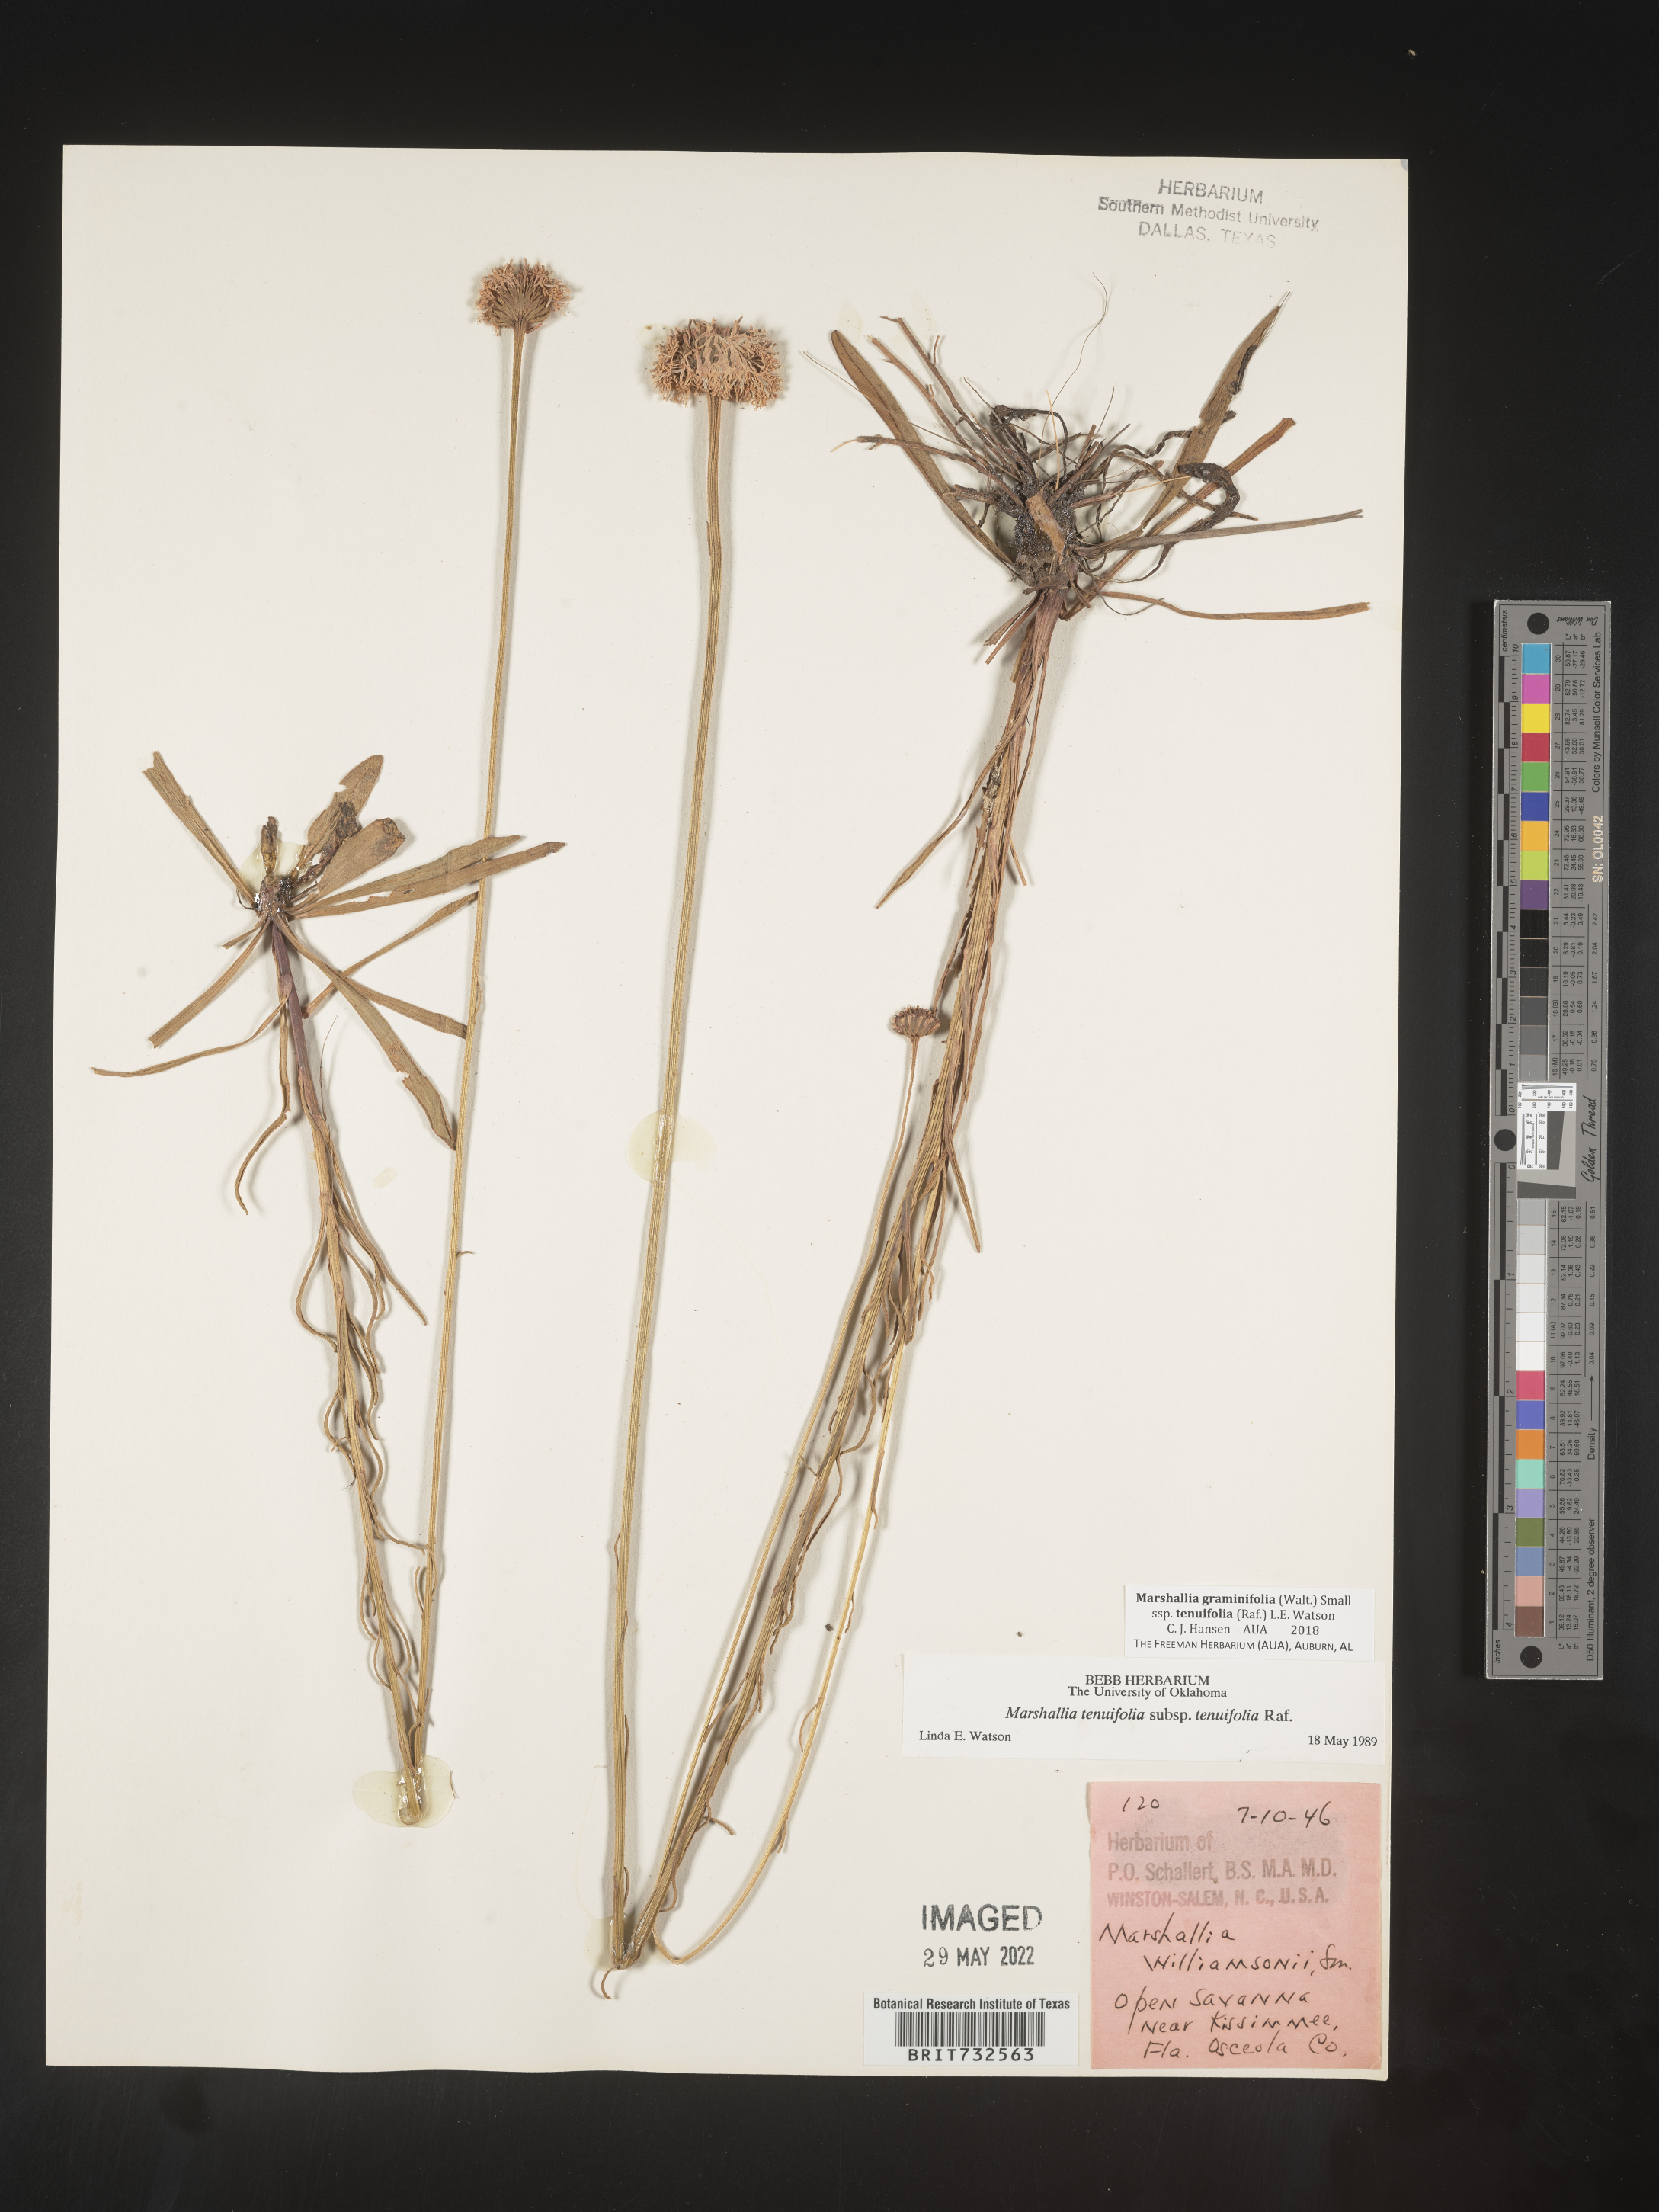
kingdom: Plantae
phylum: Tracheophyta
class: Magnoliopsida
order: Asterales
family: Asteraceae
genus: Marshallia
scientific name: Marshallia graminifolia
